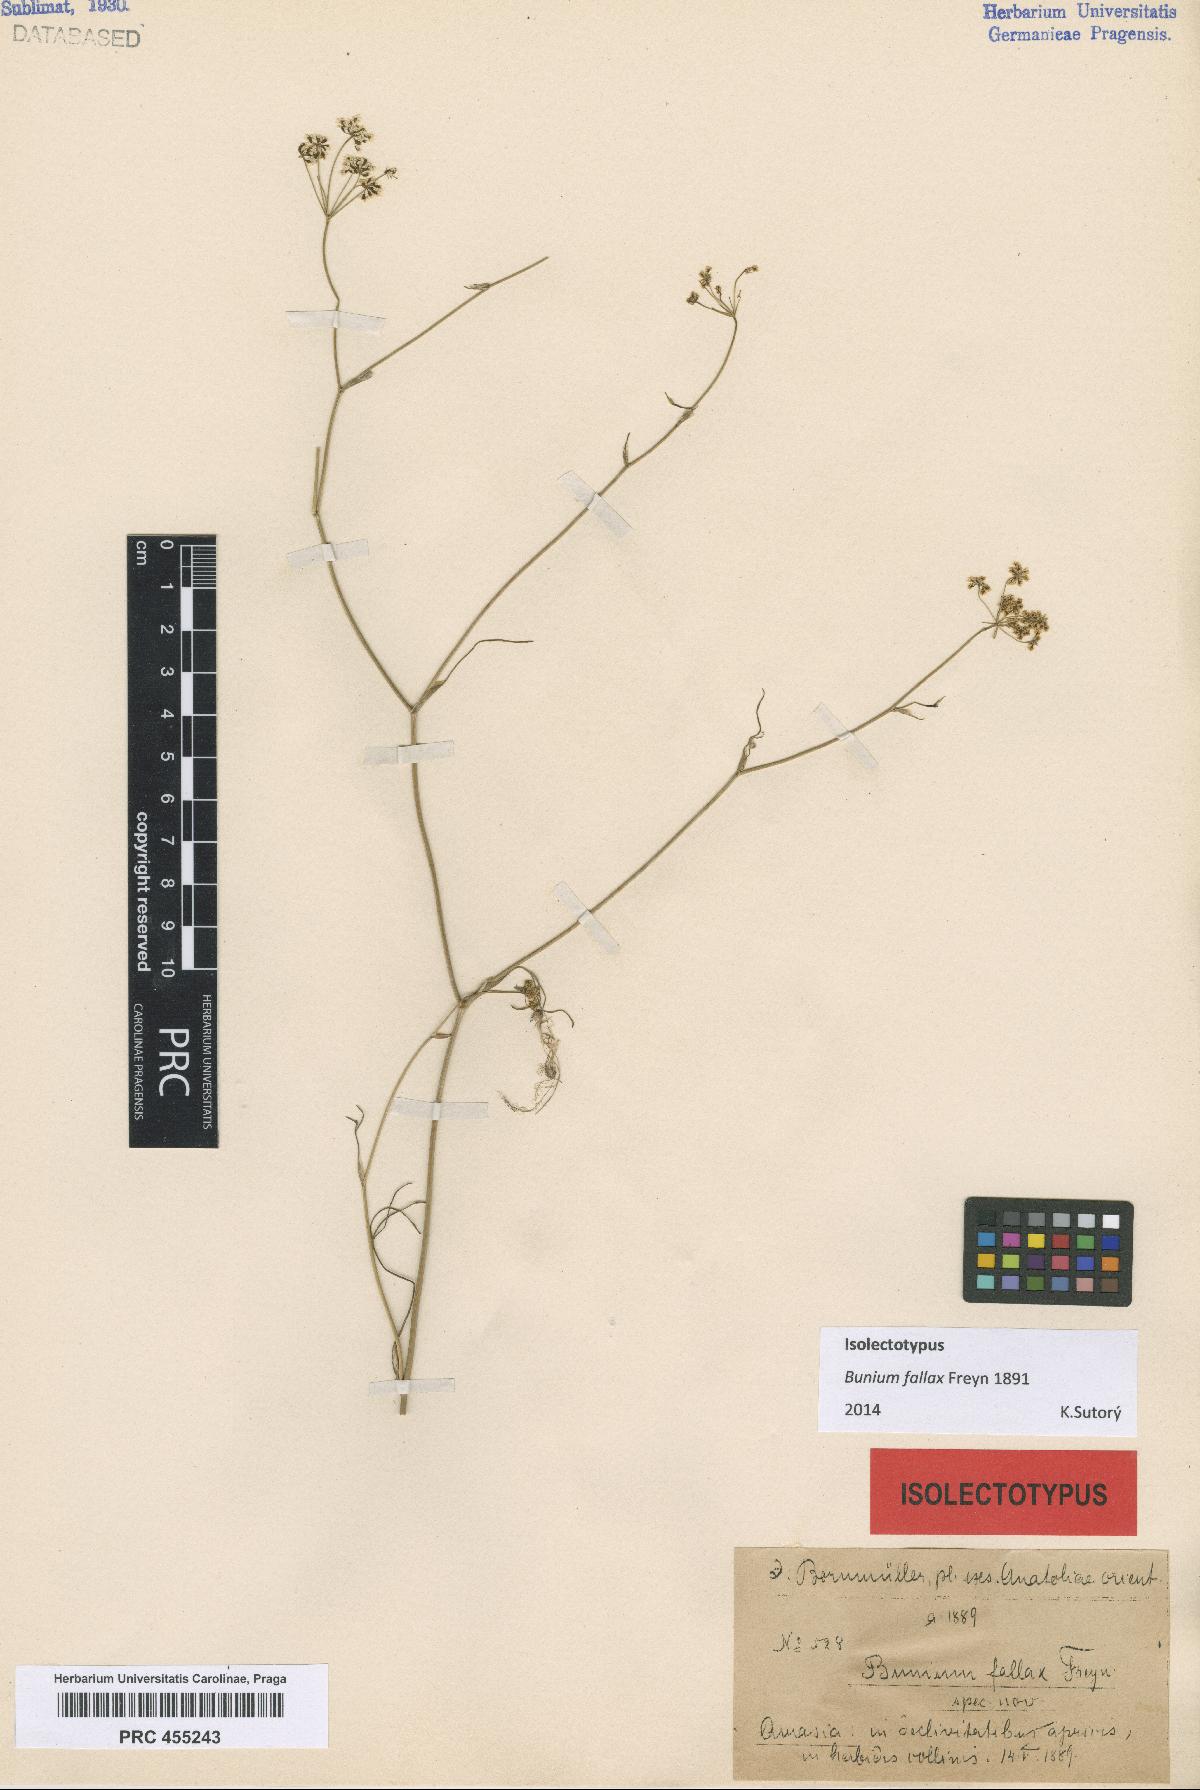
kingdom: Plantae
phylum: Tracheophyta
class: Magnoliopsida
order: Apiales
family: Apiaceae
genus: Bunium
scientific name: Bunium bourgaei
